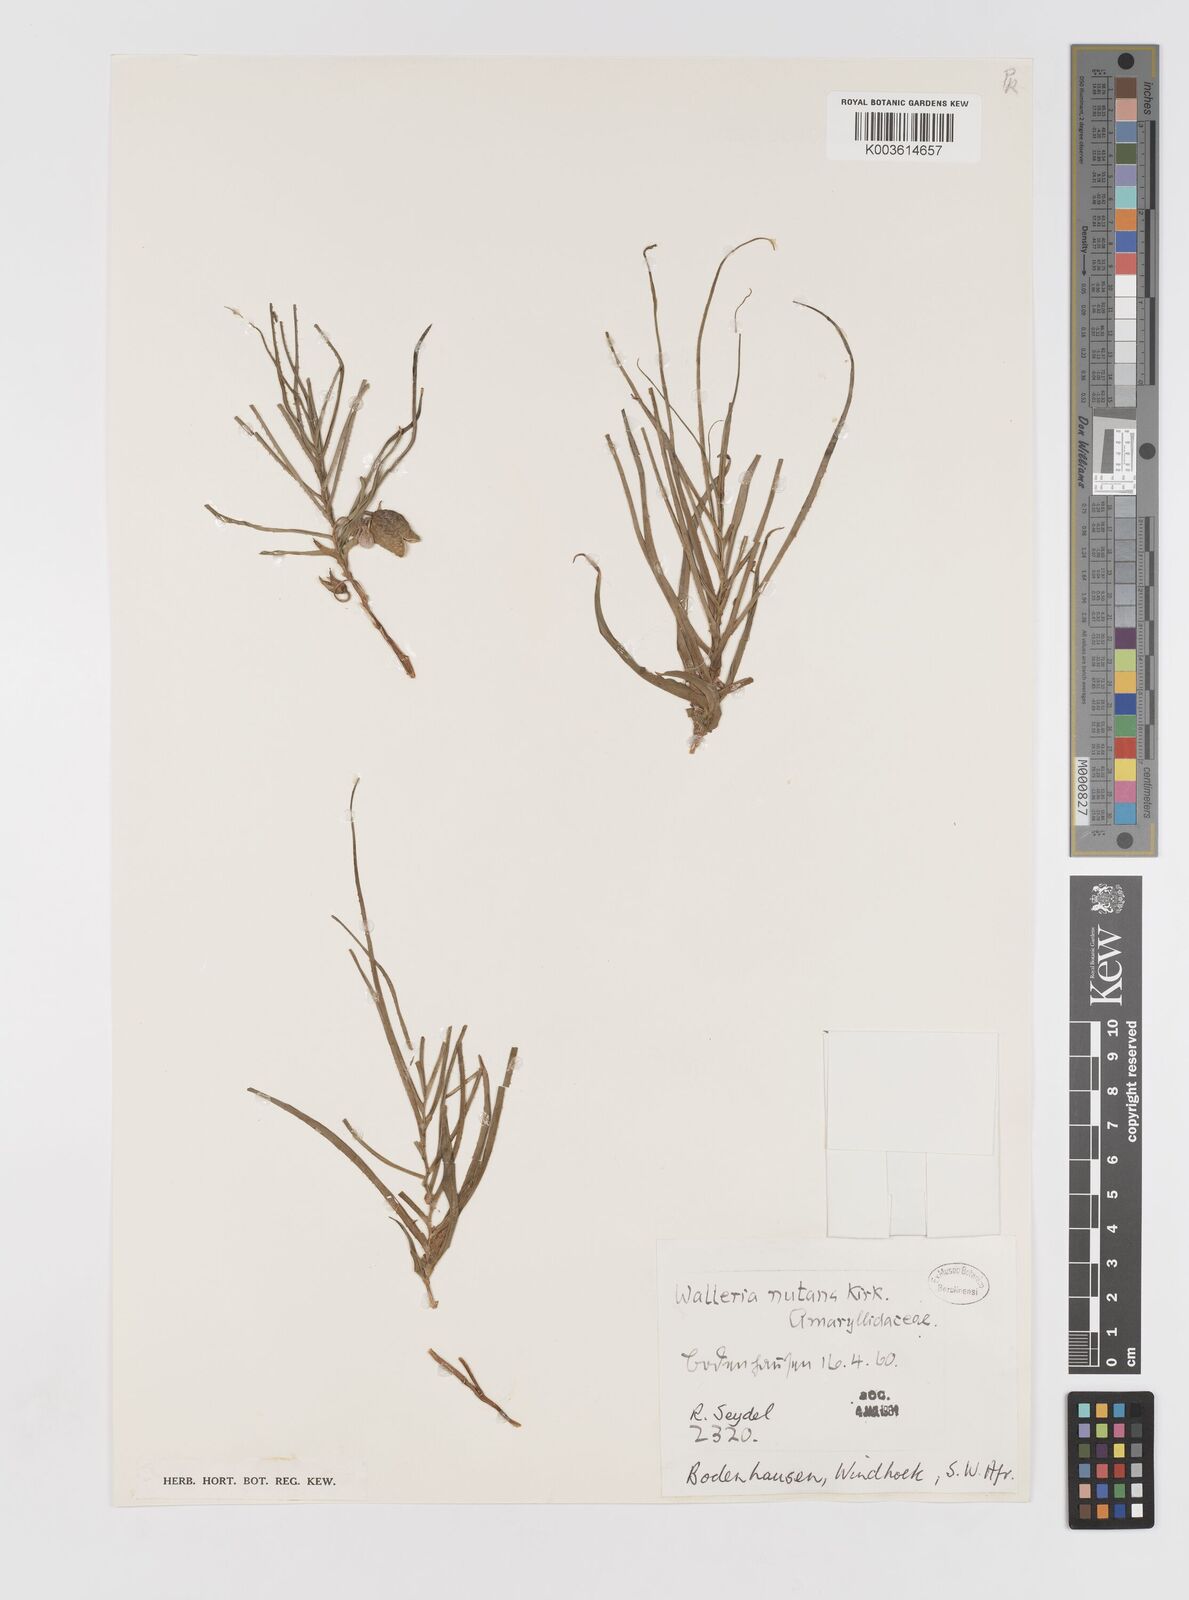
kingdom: Plantae
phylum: Tracheophyta
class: Liliopsida
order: Asparagales
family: Tecophilaeaceae
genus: Walleria
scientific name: Walleria nutans
